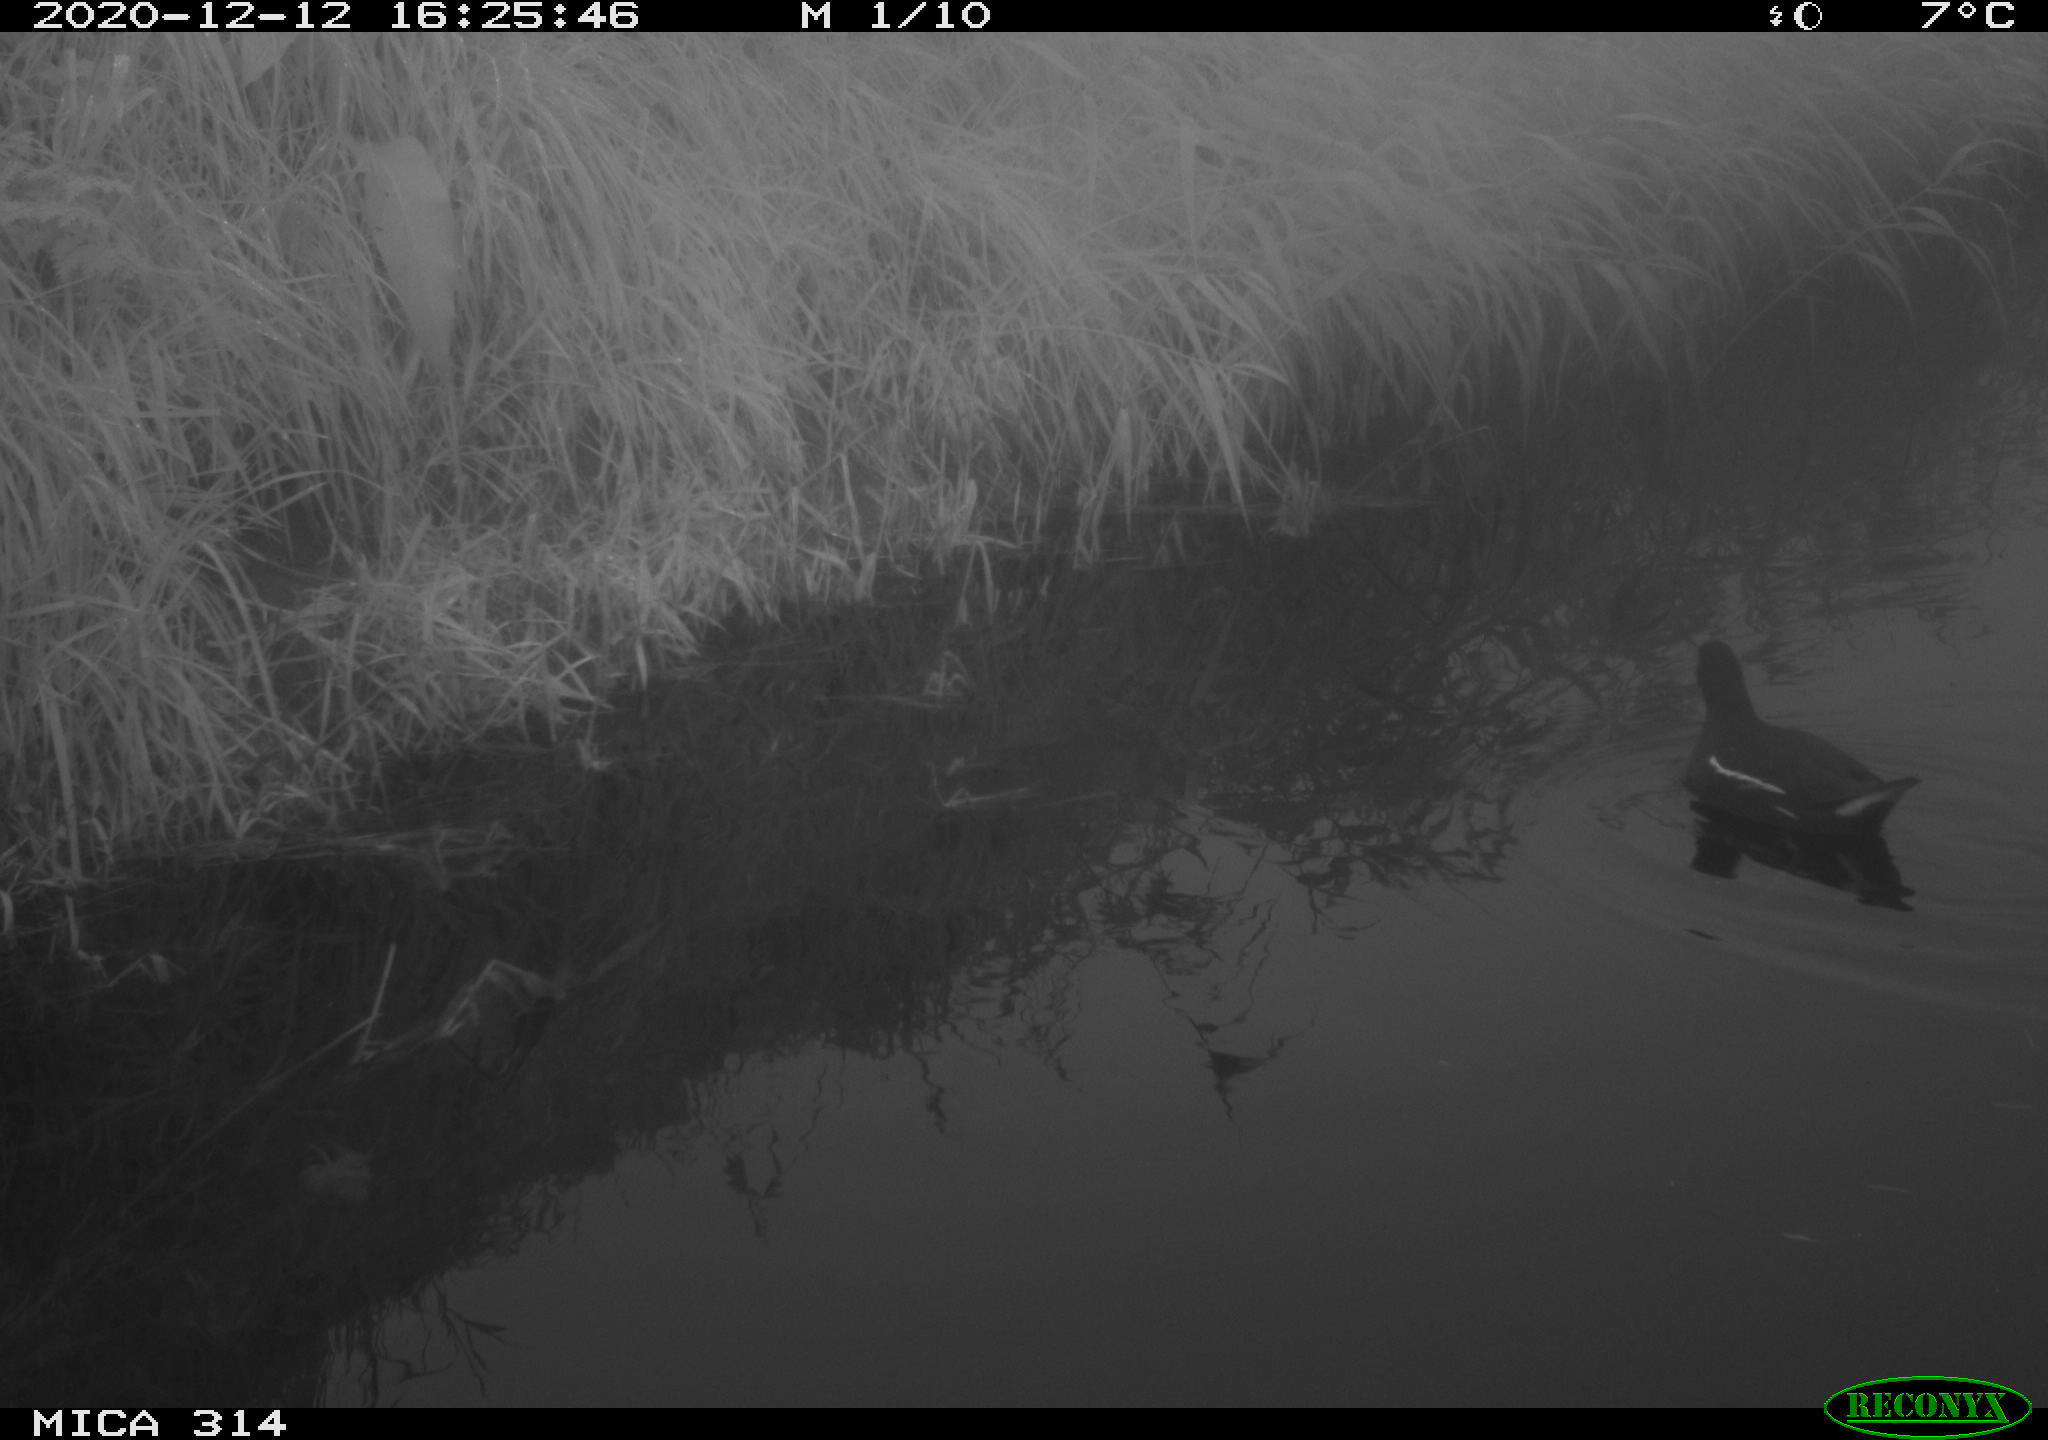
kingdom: Animalia
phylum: Chordata
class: Aves
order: Gruiformes
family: Rallidae
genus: Gallinula
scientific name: Gallinula chloropus
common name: Common moorhen
